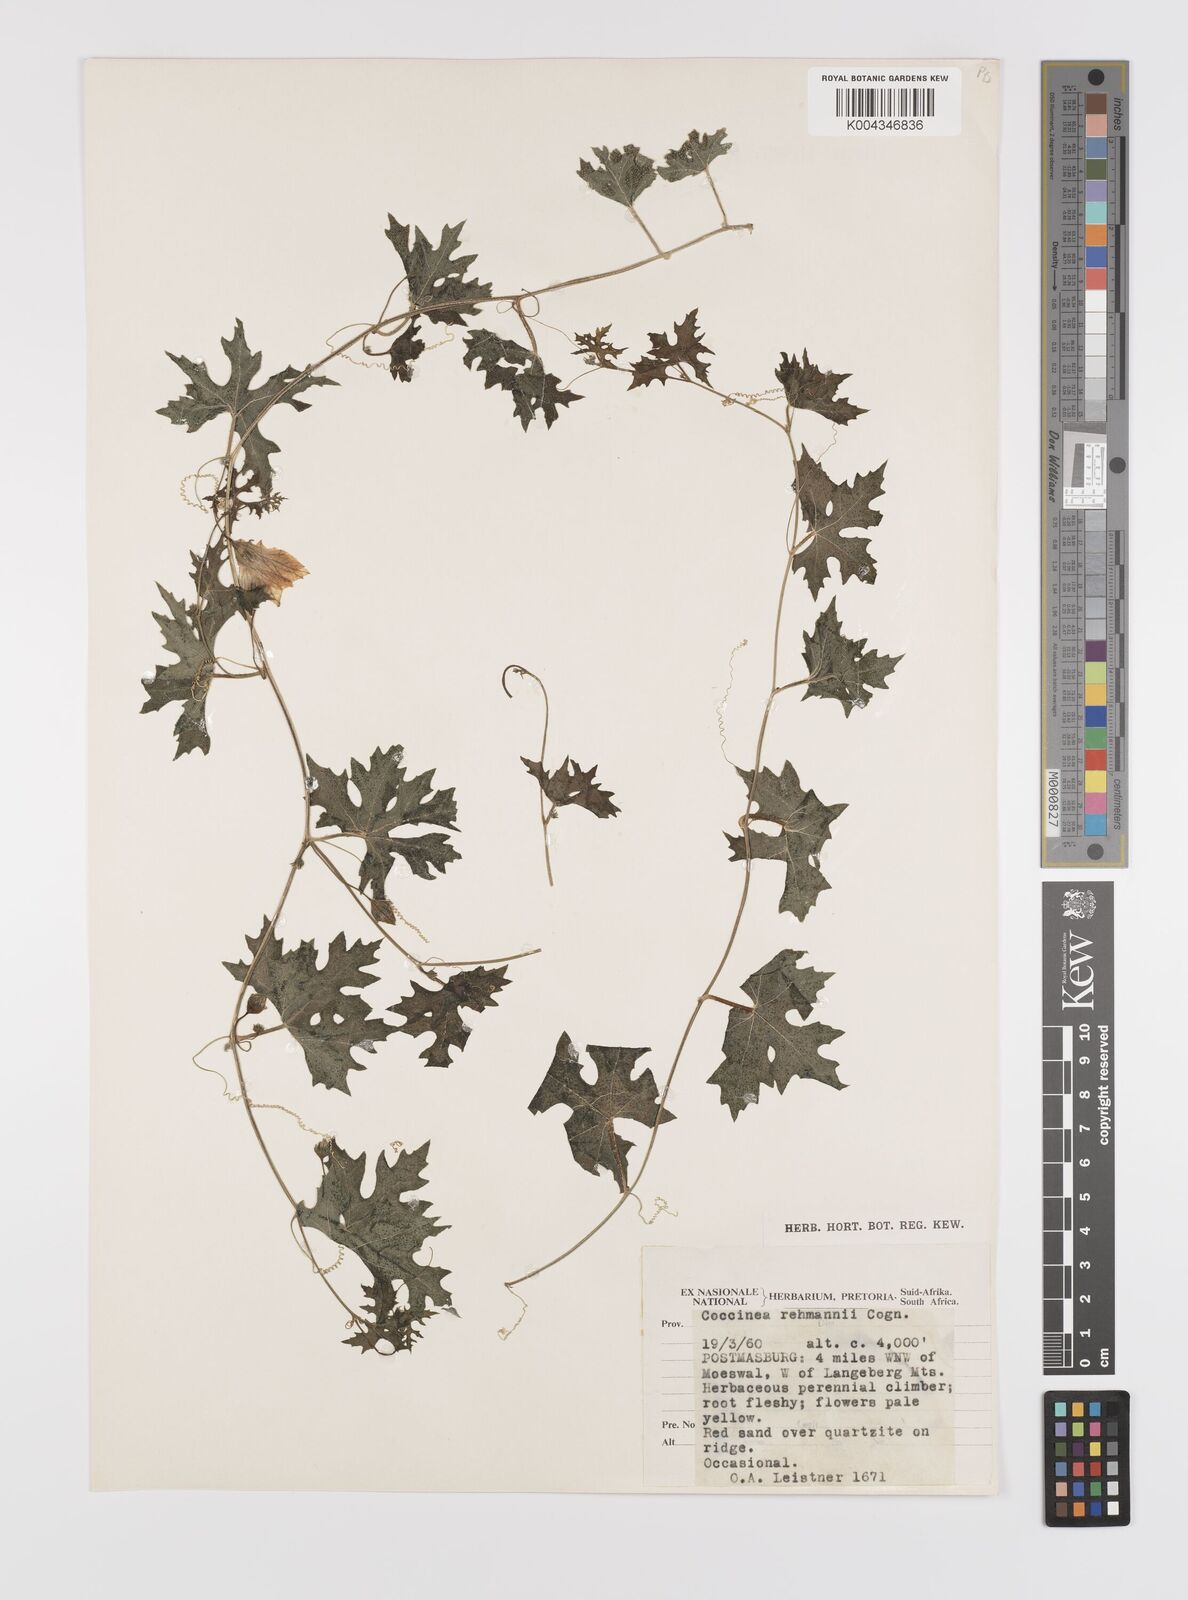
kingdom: Plantae
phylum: Tracheophyta
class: Magnoliopsida
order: Cucurbitales
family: Cucurbitaceae
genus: Coccinia
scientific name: Coccinia rehmannii
